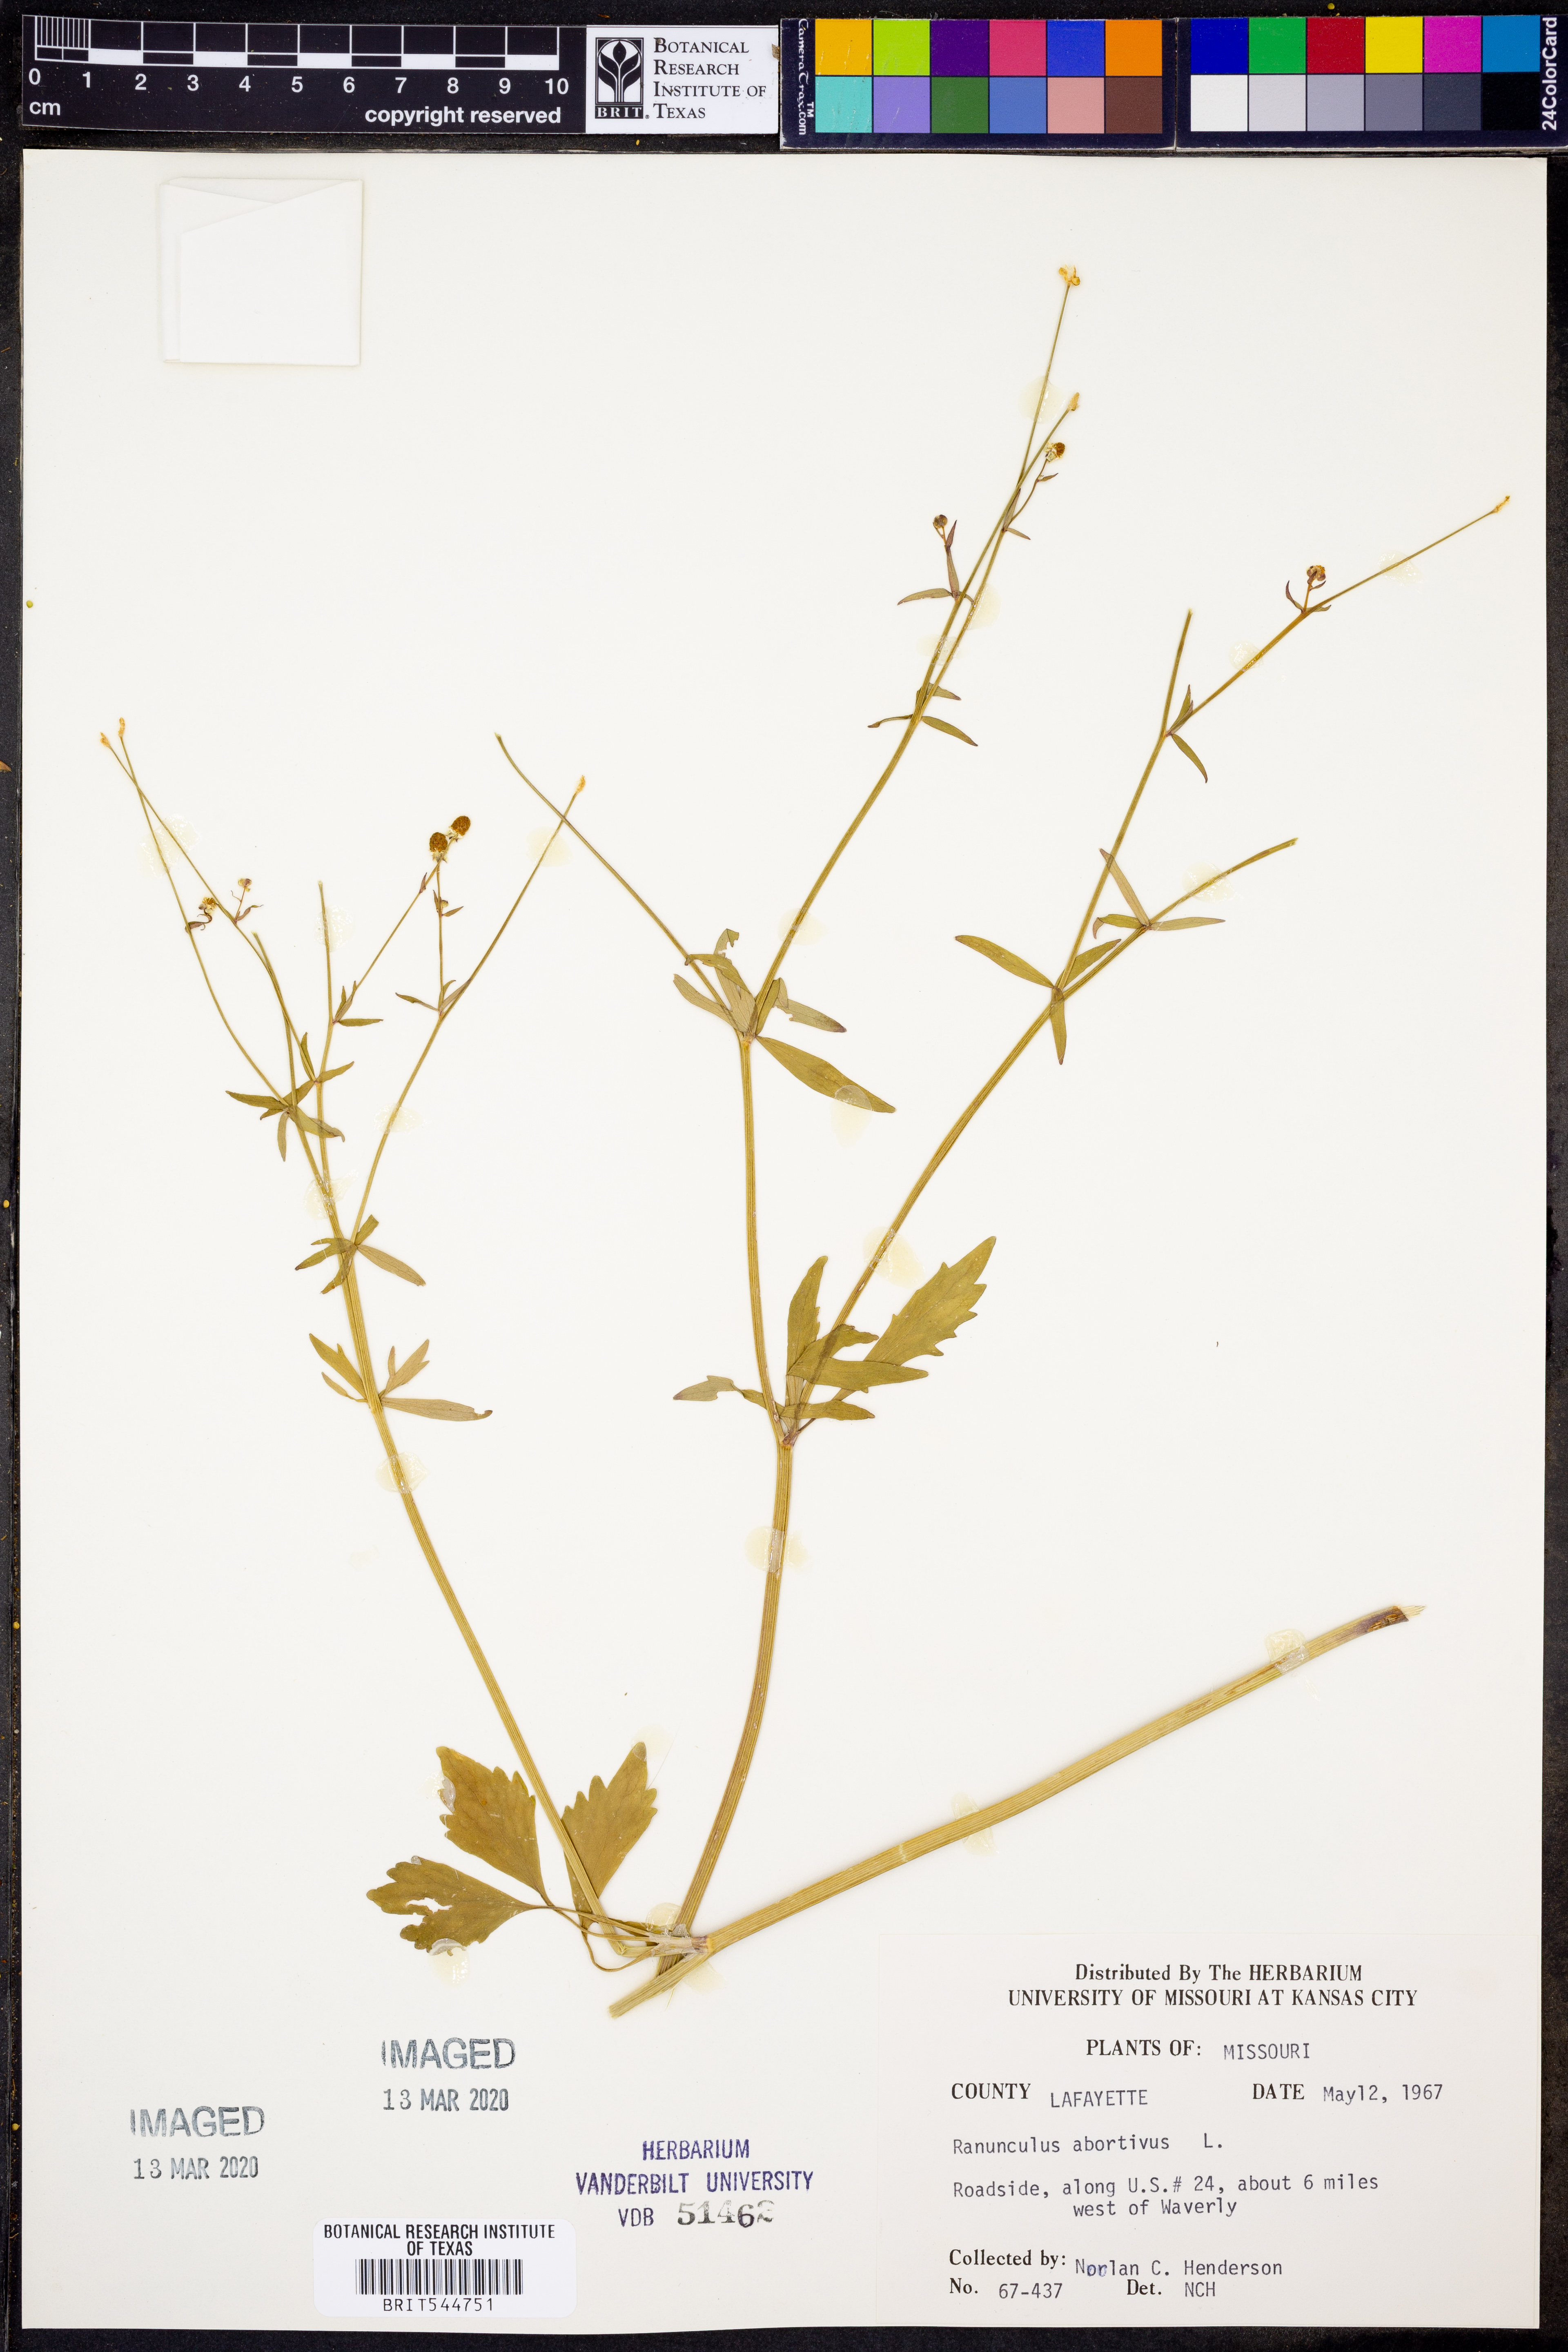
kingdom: Plantae
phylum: Tracheophyta
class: Magnoliopsida
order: Ranunculales
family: Ranunculaceae
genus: Ranunculus
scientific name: Ranunculus abortivus
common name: Early wood buttercup
